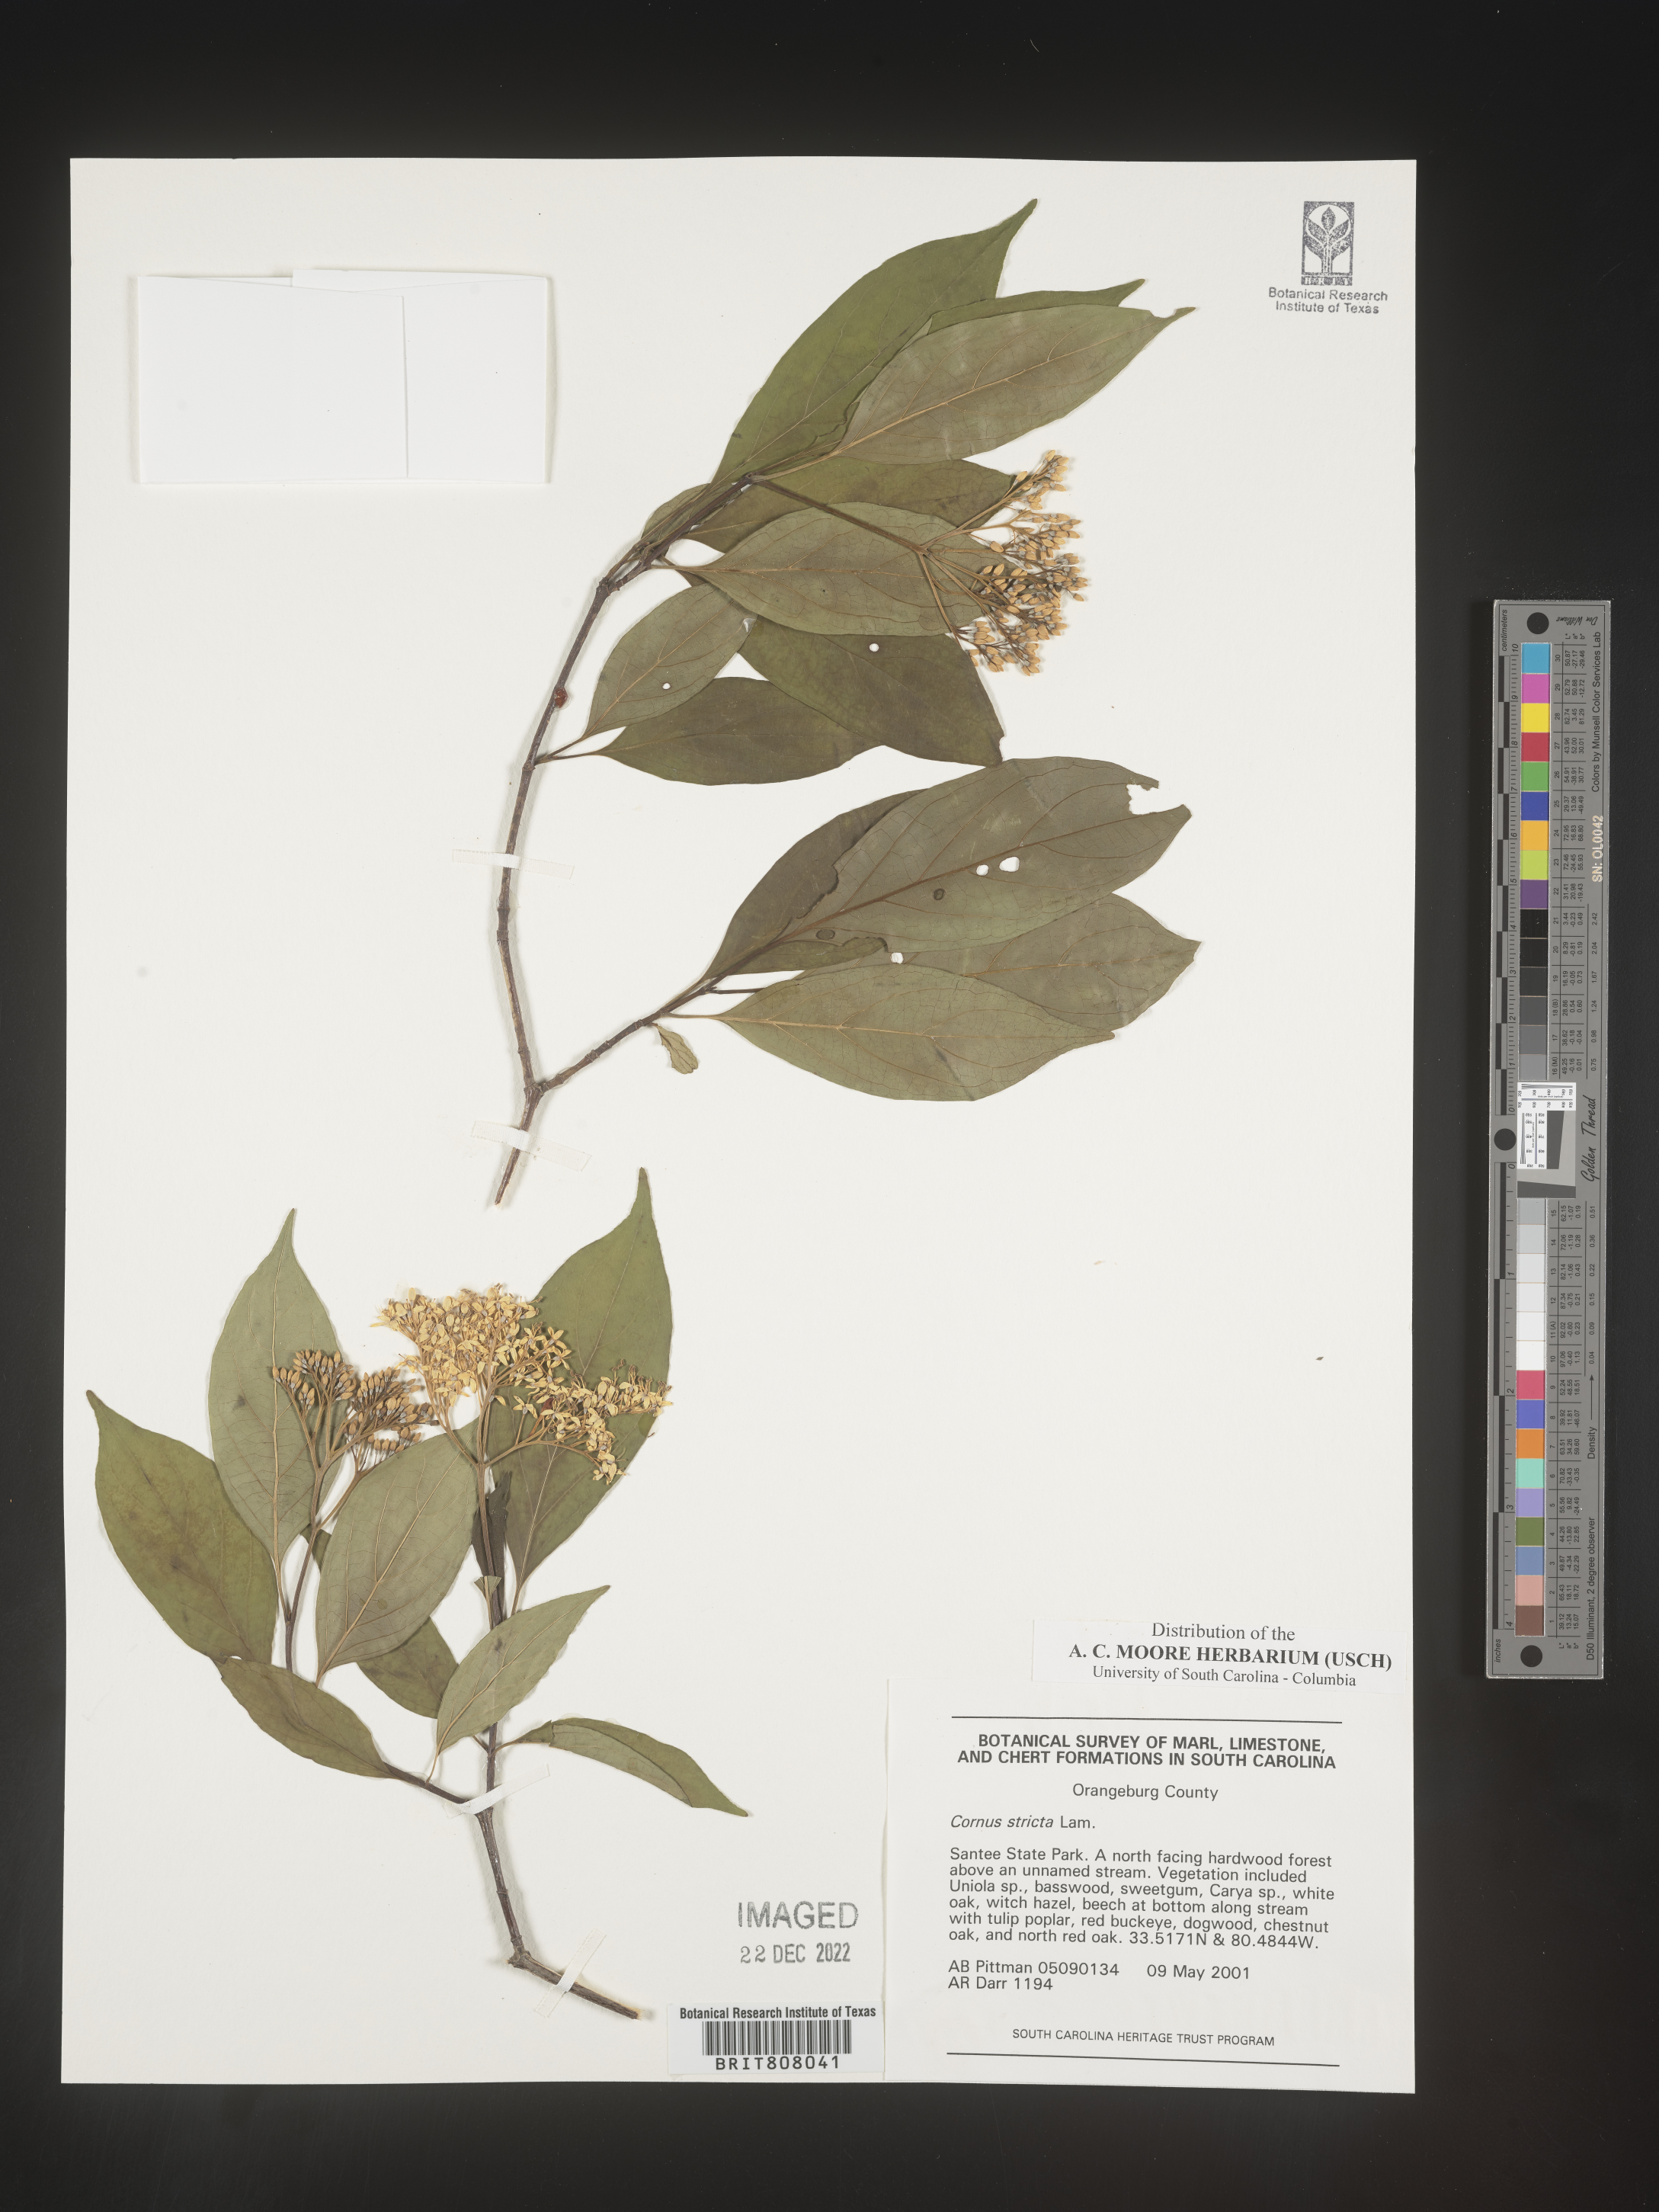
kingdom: Plantae
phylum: Tracheophyta
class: Magnoliopsida
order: Cornales
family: Cornaceae
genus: Cornus
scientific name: Cornus foemina
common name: Swamp dogwood
